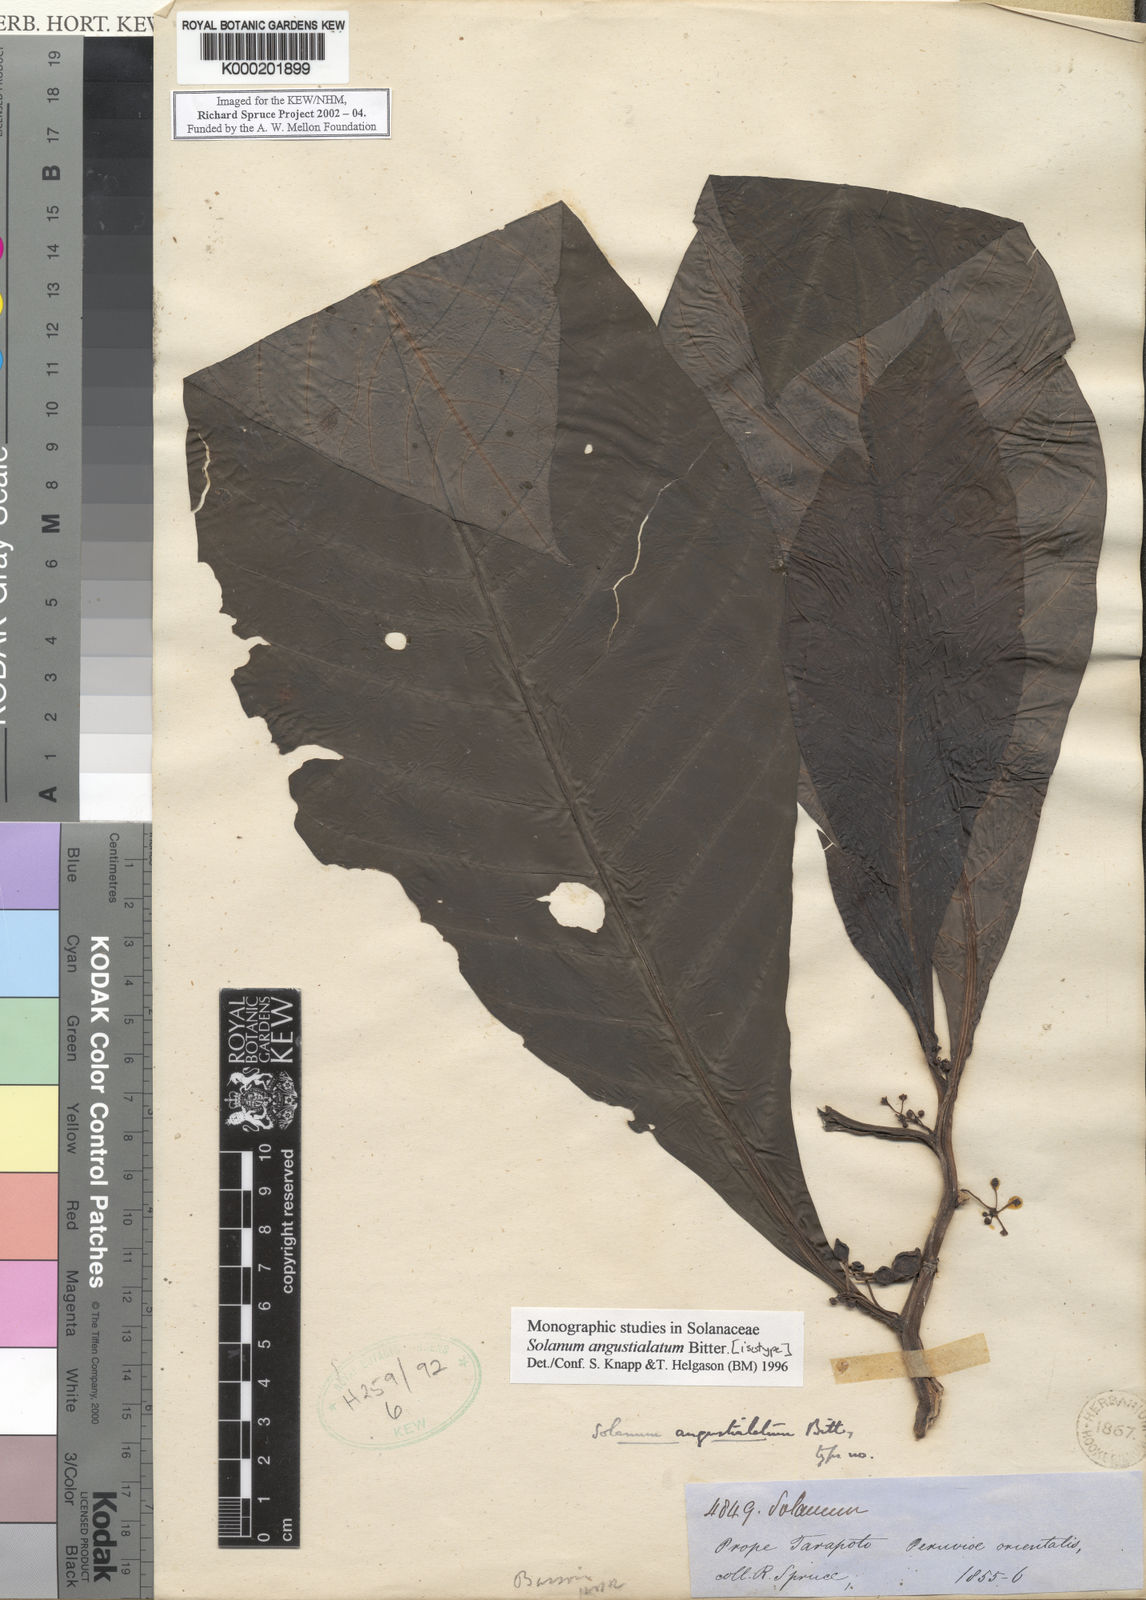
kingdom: Plantae
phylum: Tracheophyta
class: Magnoliopsida
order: Solanales
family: Solanaceae
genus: Solanum
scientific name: Solanum angustialatum
